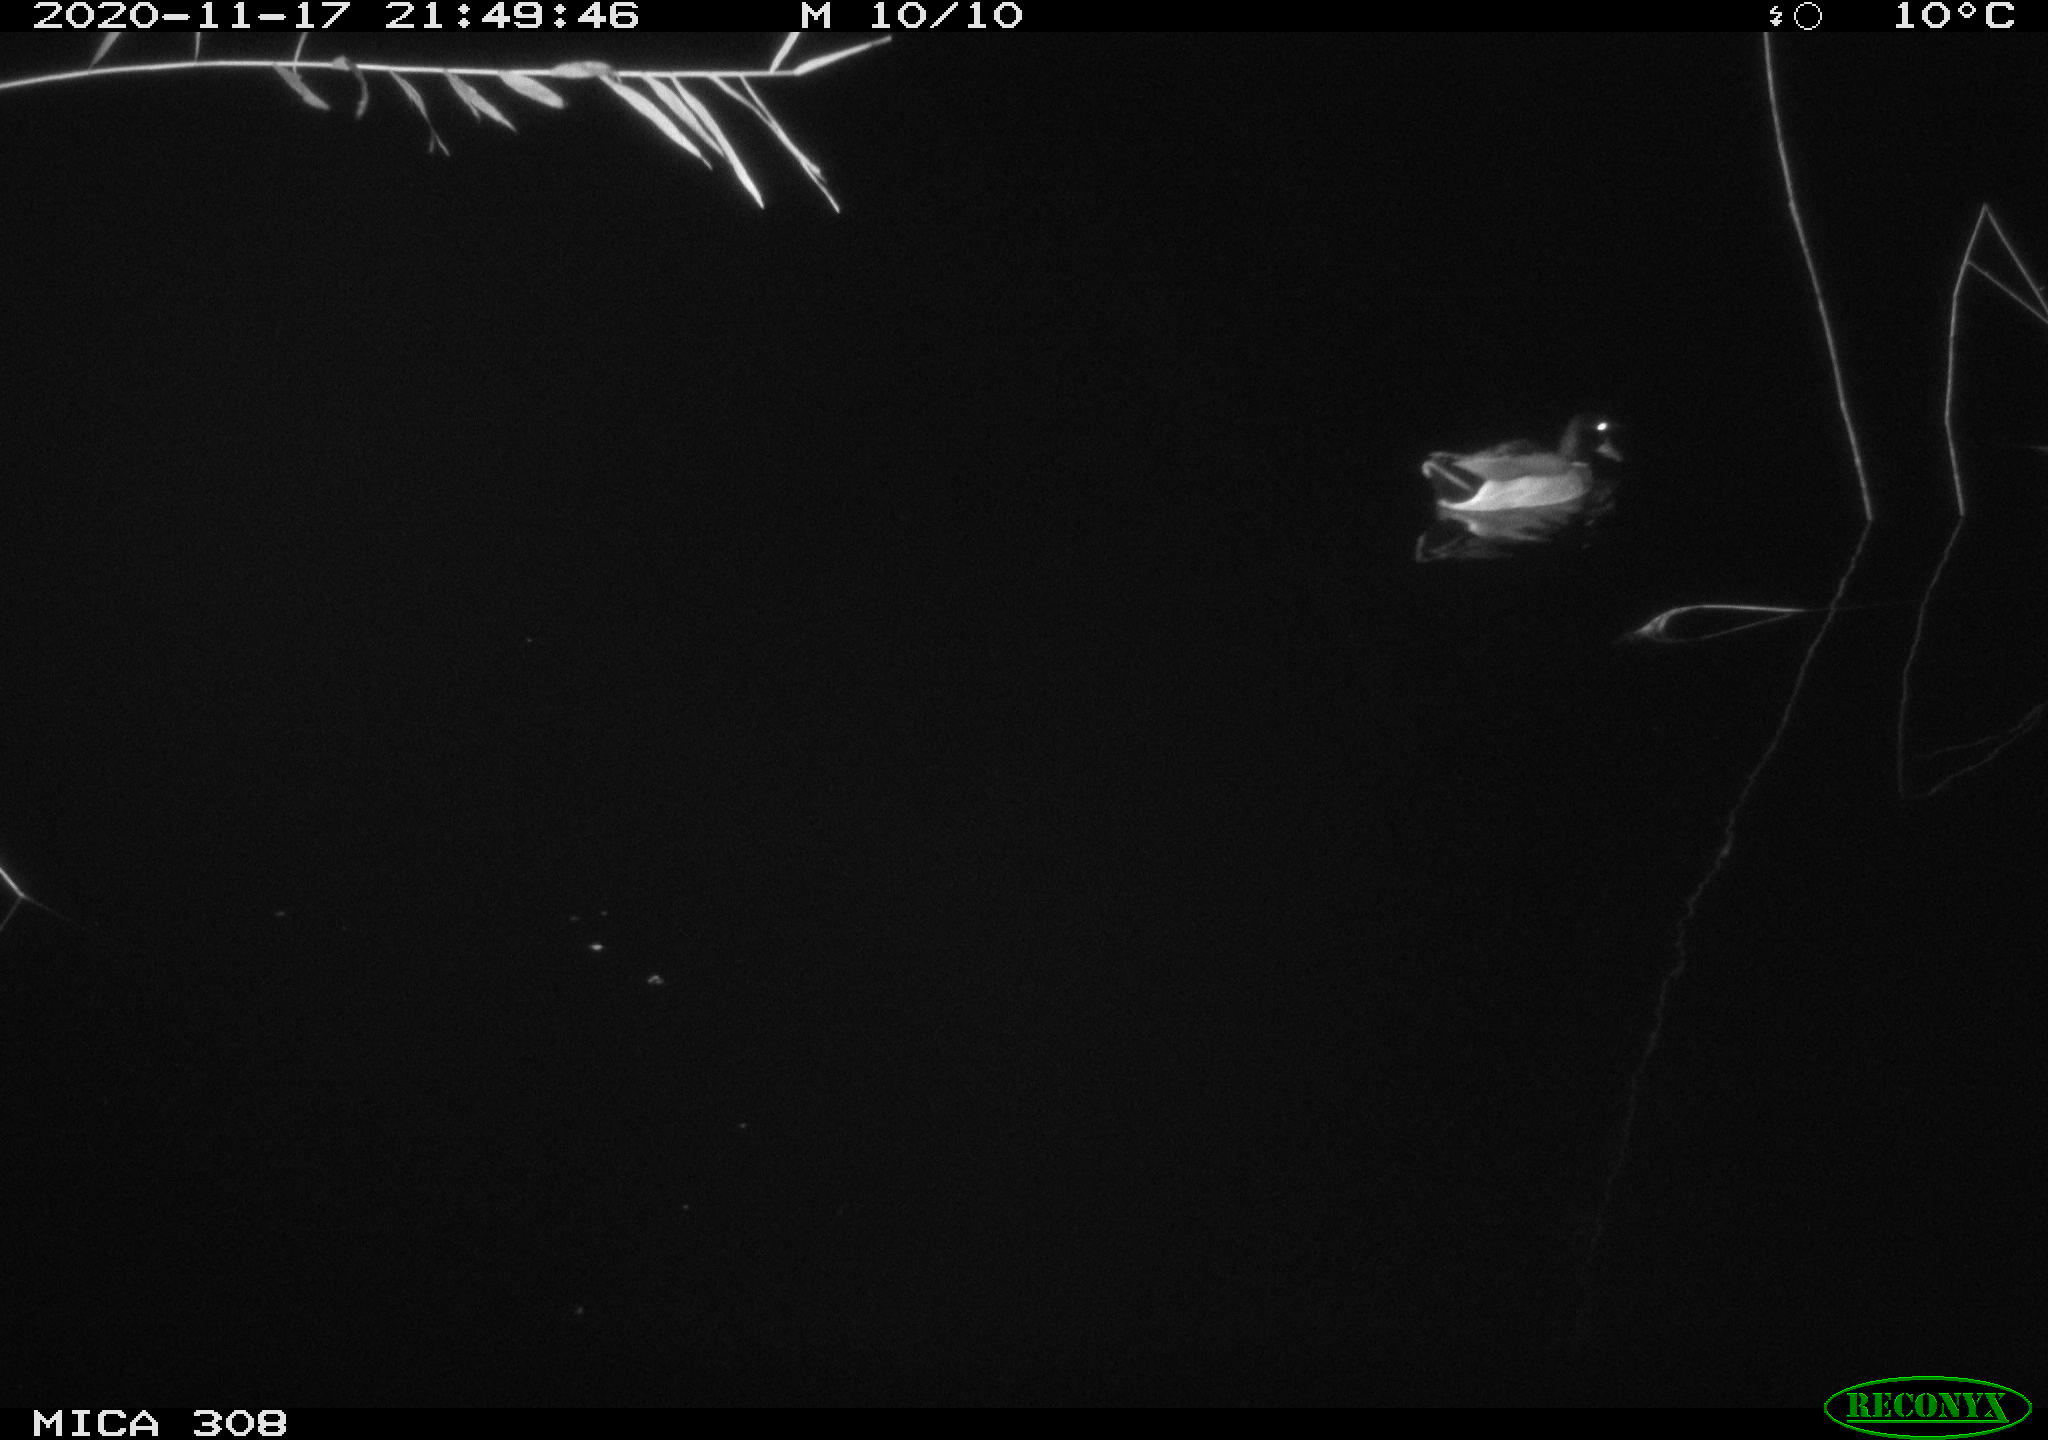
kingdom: Animalia
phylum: Chordata
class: Aves
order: Anseriformes
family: Anatidae
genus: Anas
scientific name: Anas platyrhynchos
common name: Mallard
